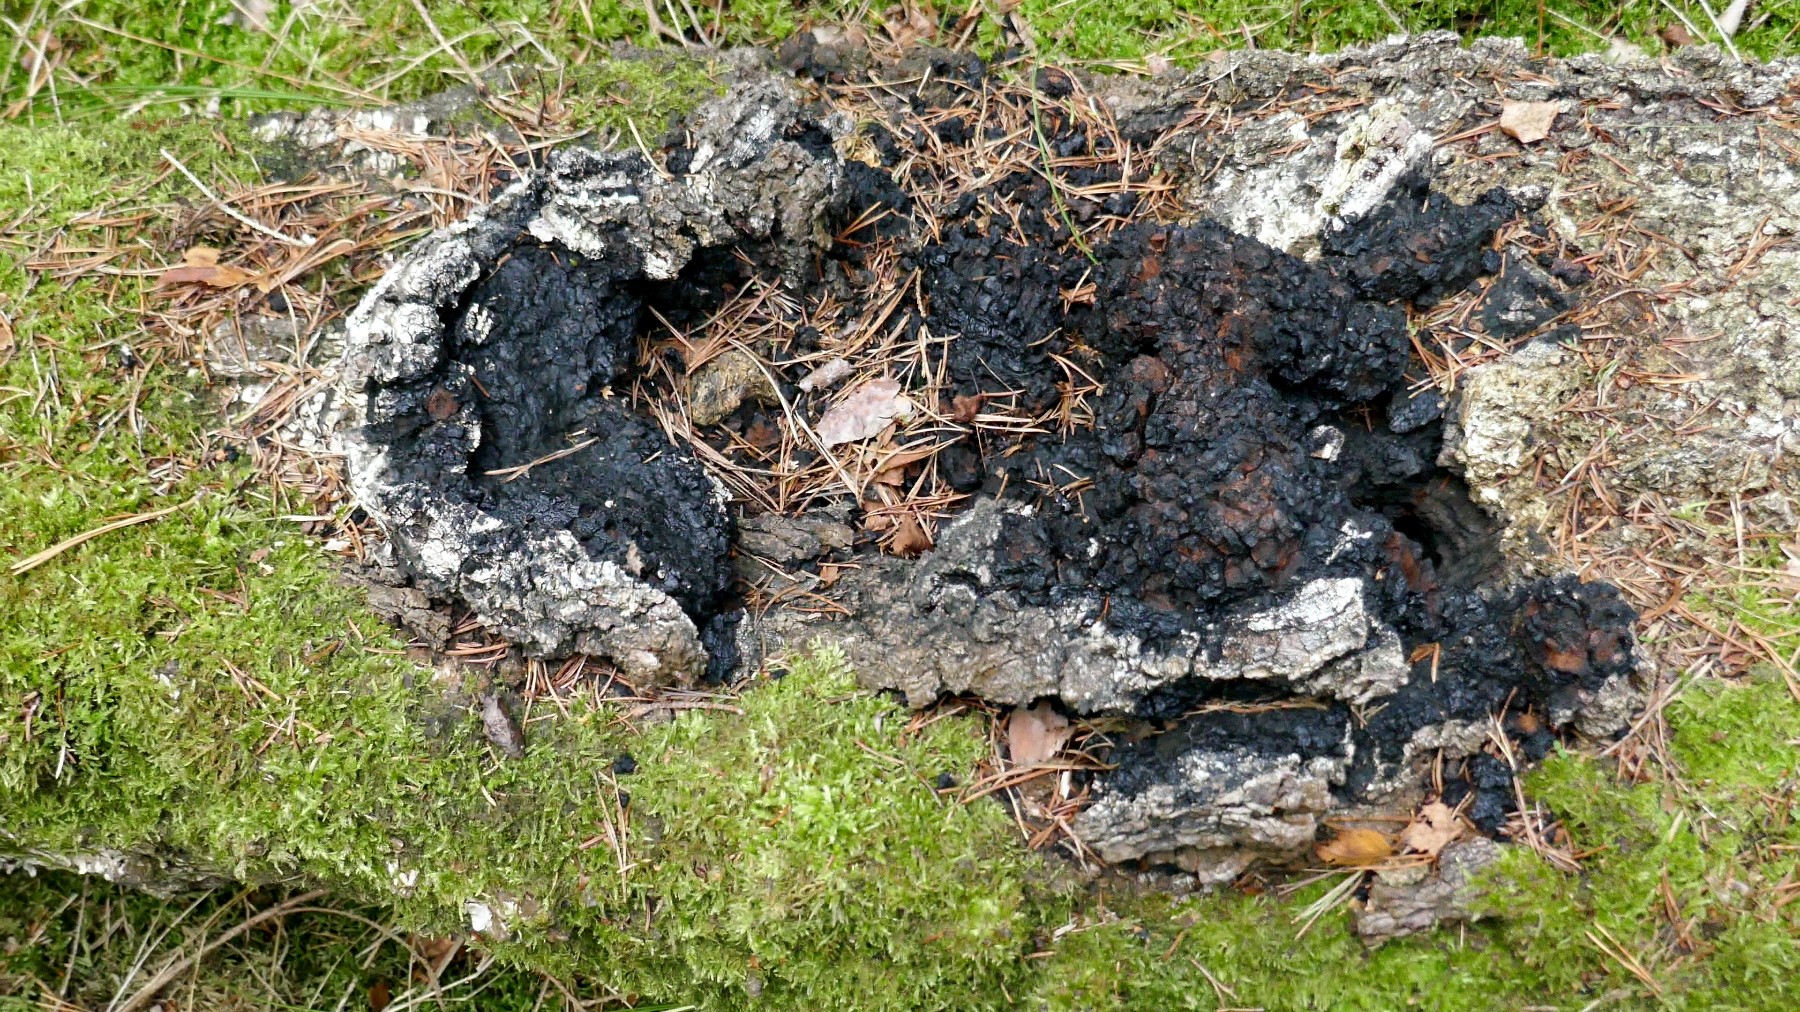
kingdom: Fungi
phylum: Basidiomycota
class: Agaricomycetes
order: Hymenochaetales
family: Hymenochaetaceae
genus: Inonotus
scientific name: Inonotus obliquus
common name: birke-spejlporesvamp
